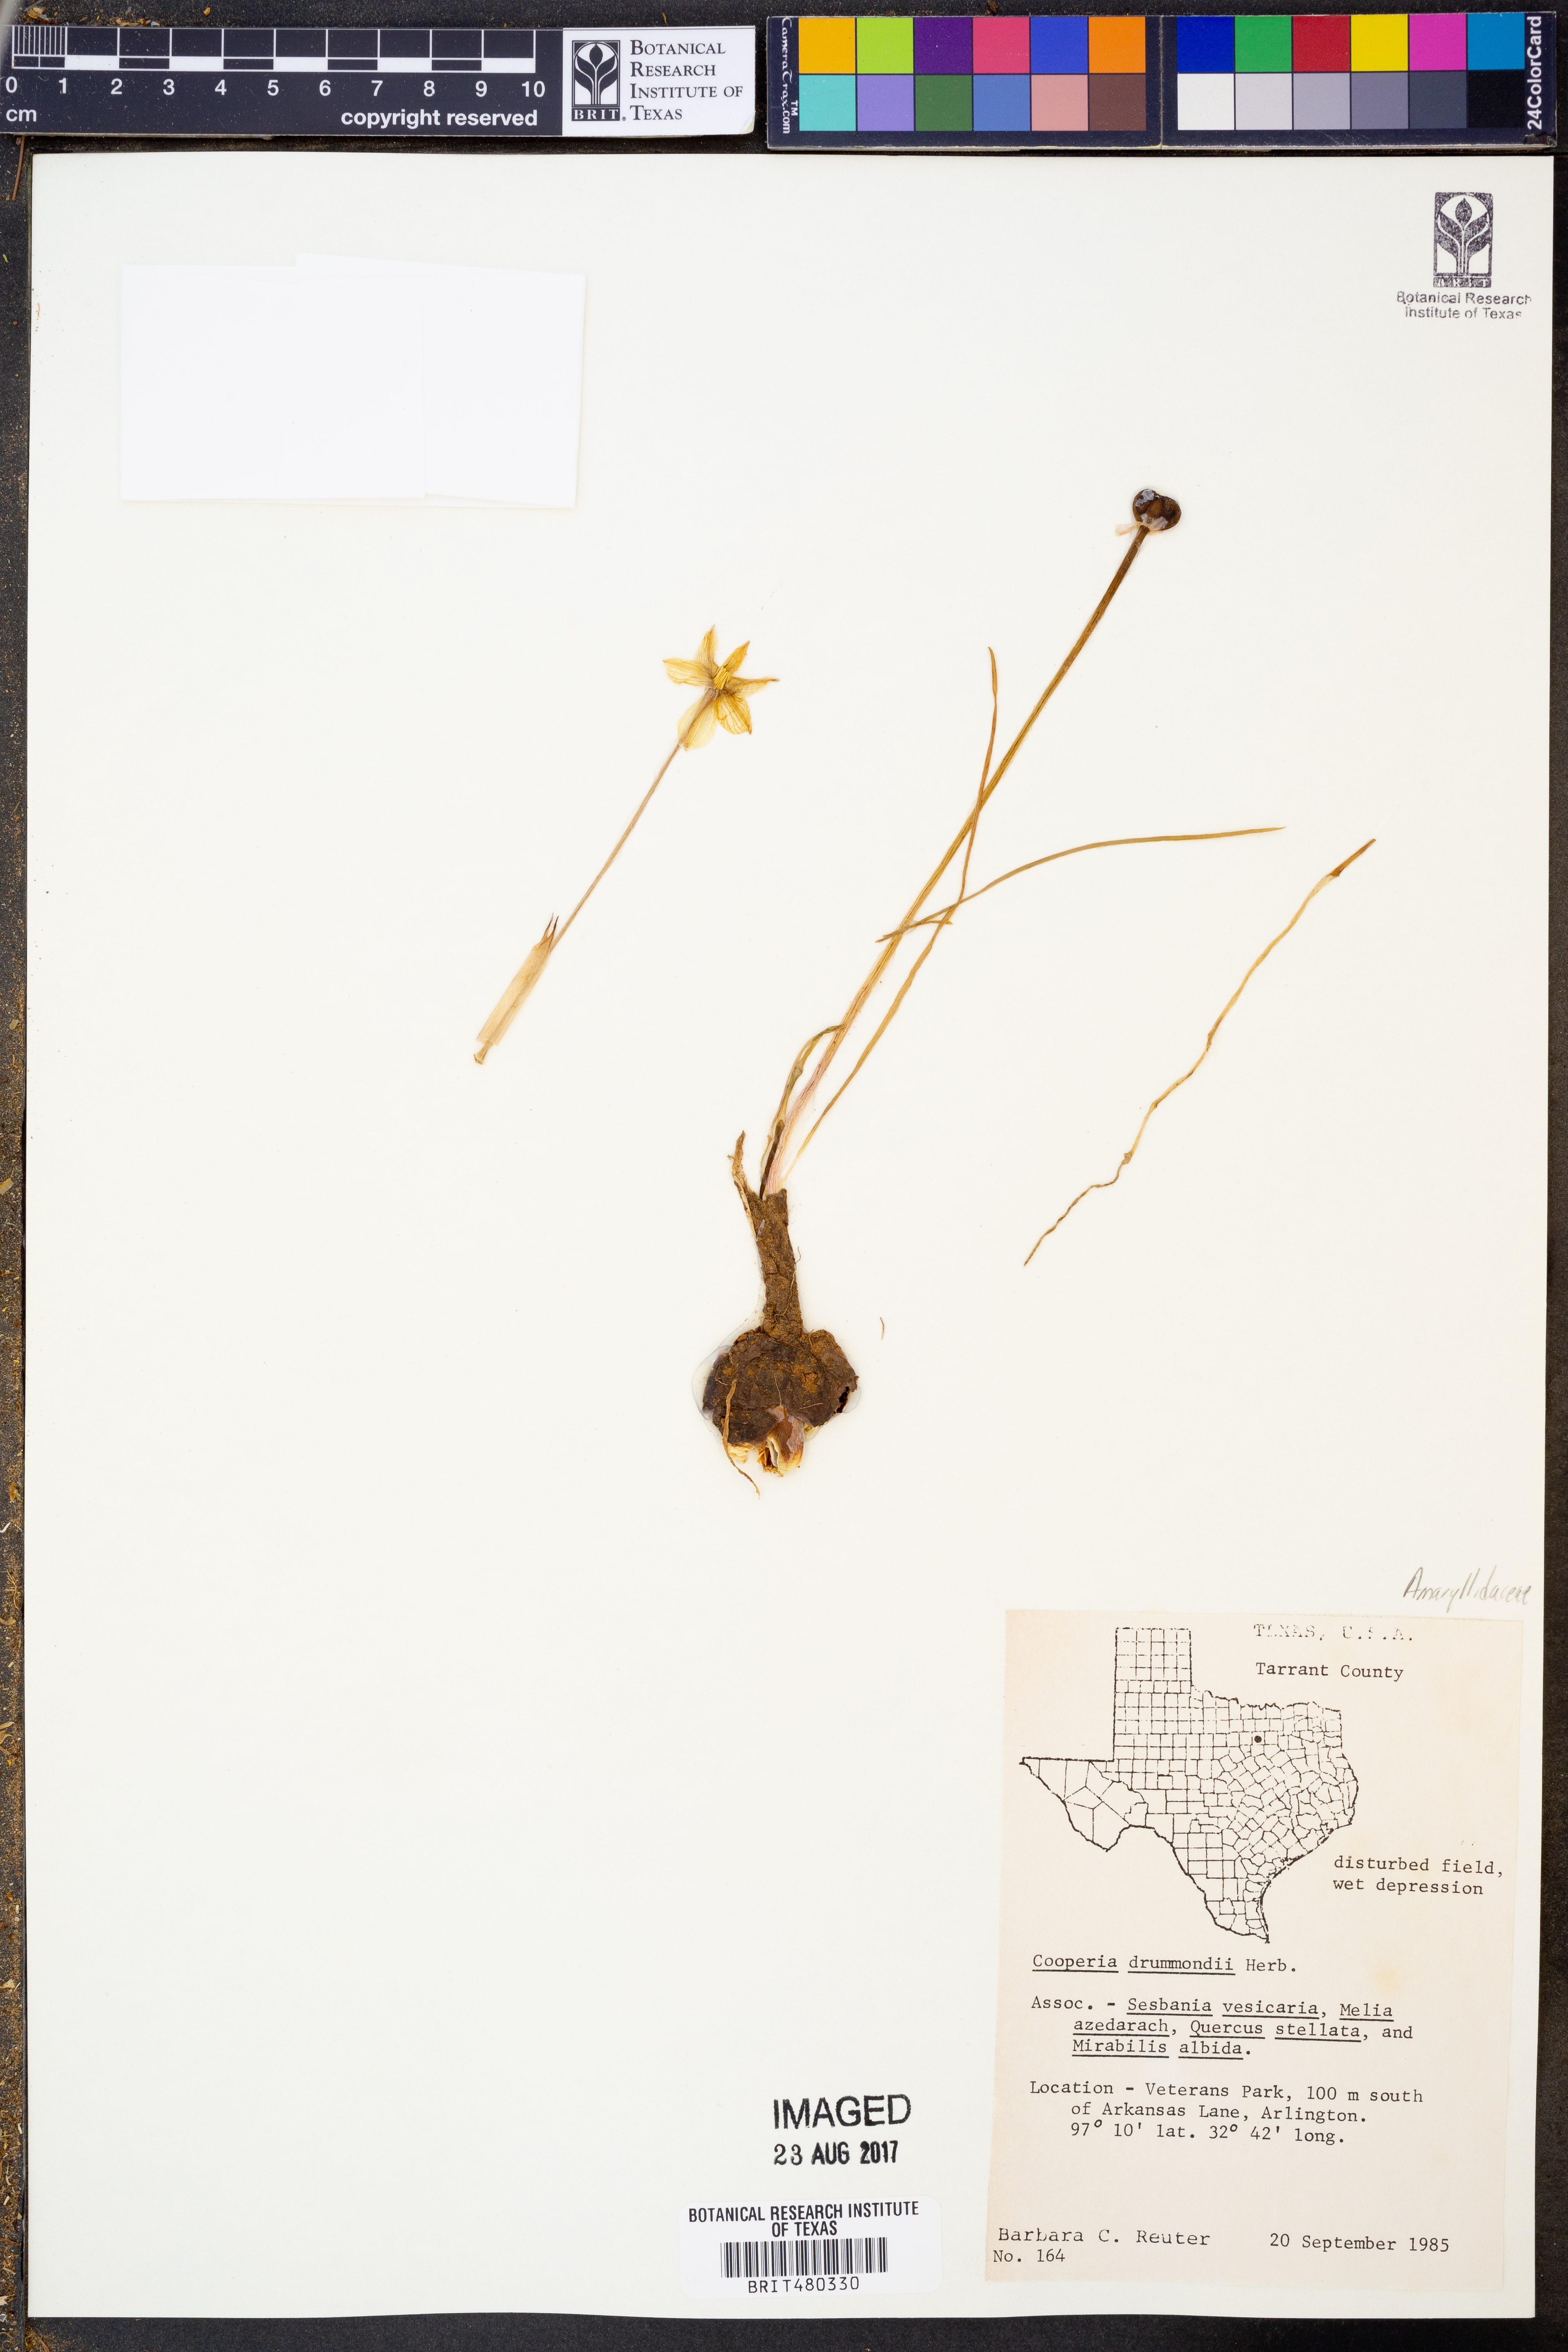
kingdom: Plantae
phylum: Tracheophyta
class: Liliopsida
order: Asparagales
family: Amaryllidaceae
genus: Zephyranthes
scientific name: Zephyranthes chlorosolen
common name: Evening rain-lily
